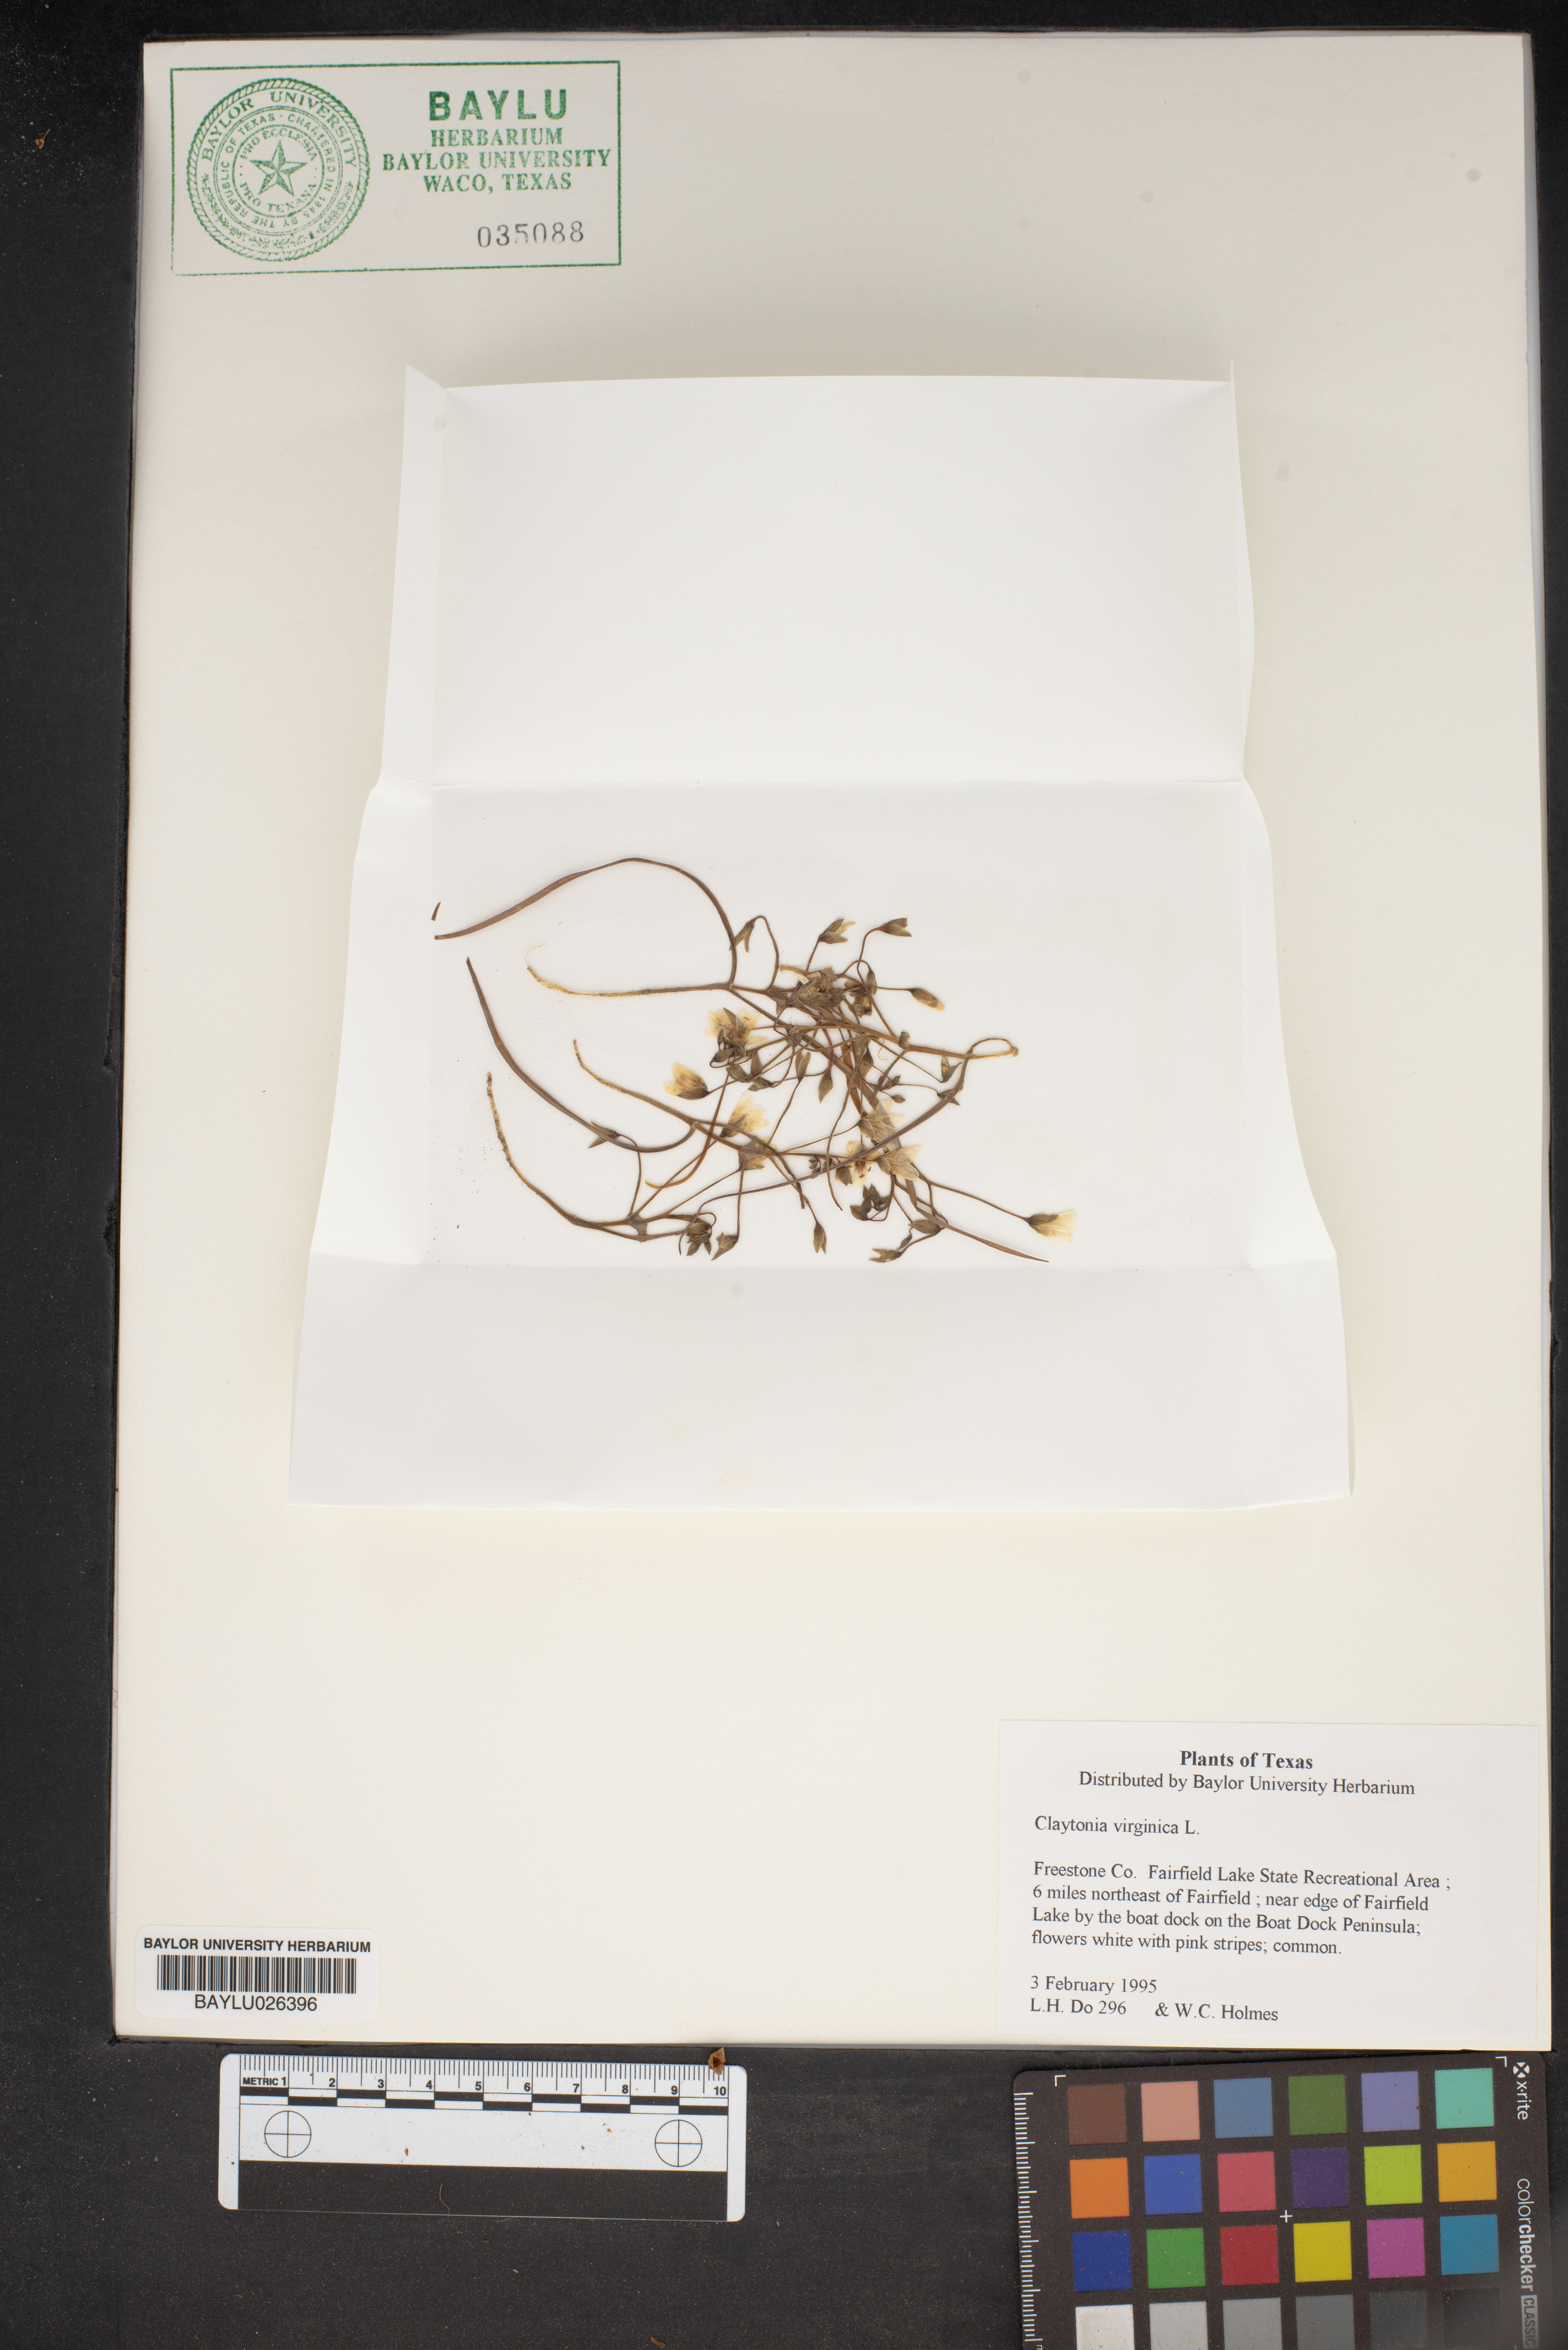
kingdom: Plantae
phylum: Tracheophyta
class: Magnoliopsida
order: Caryophyllales
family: Montiaceae
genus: Claytonia
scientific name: Claytonia virginica
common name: Virginia springbeauty
